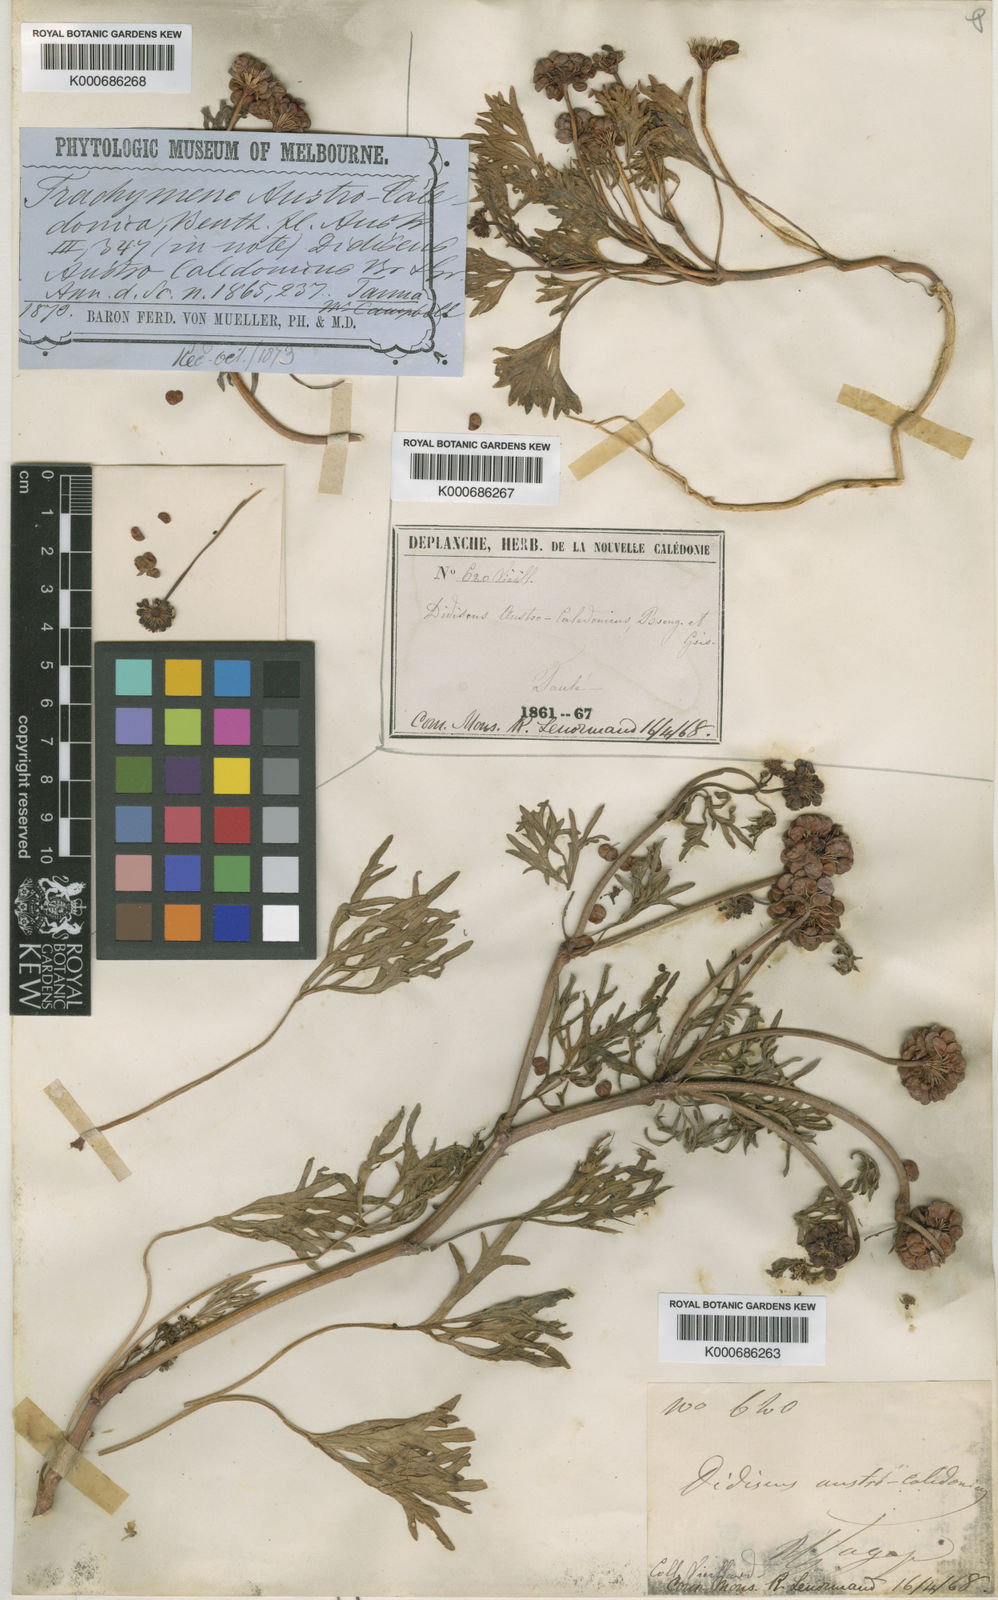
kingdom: Plantae
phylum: Tracheophyta
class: Magnoliopsida
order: Apiales
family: Araliaceae
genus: Trachymene
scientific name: Trachymene cussonii
